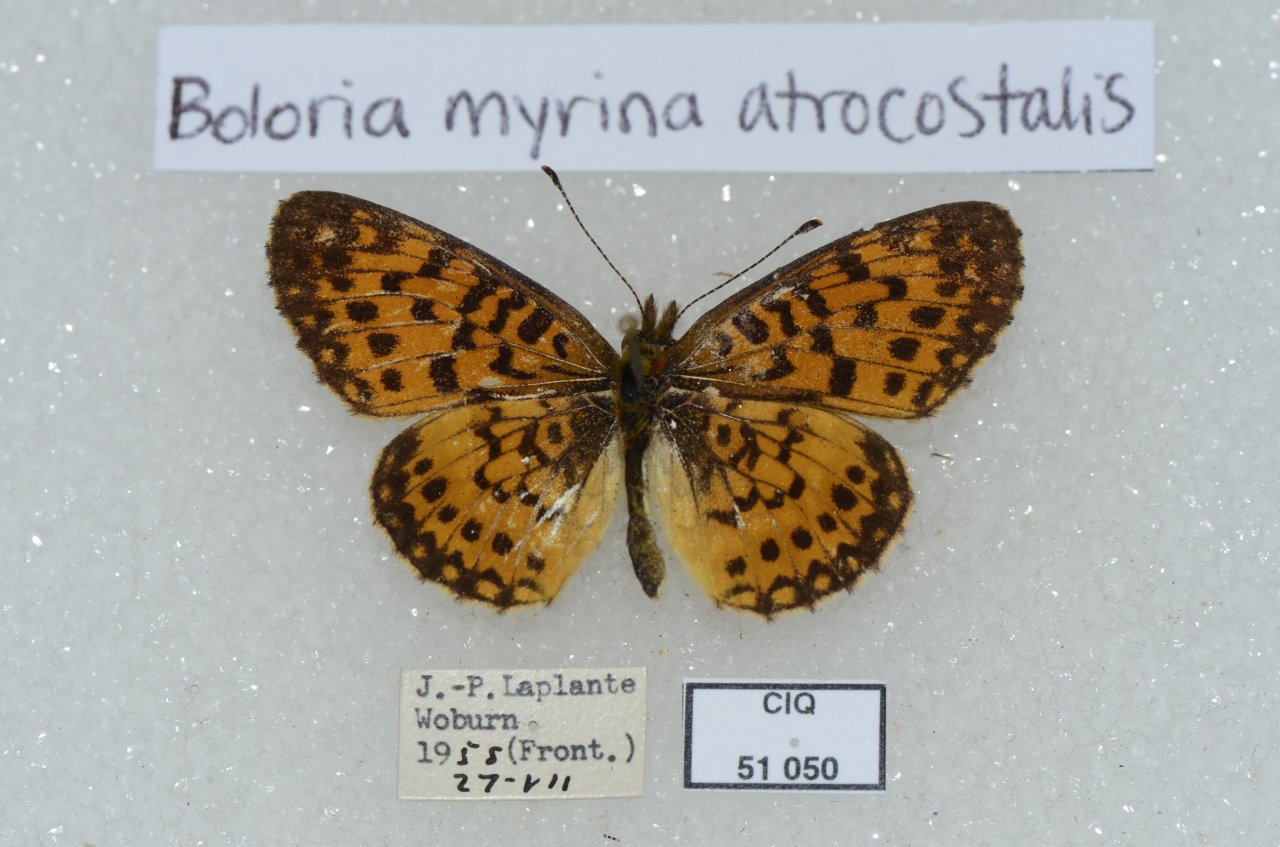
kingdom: Animalia
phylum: Arthropoda
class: Insecta
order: Lepidoptera
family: Nymphalidae
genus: Boloria
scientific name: Boloria selene
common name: Silver-bordered Fritillary
